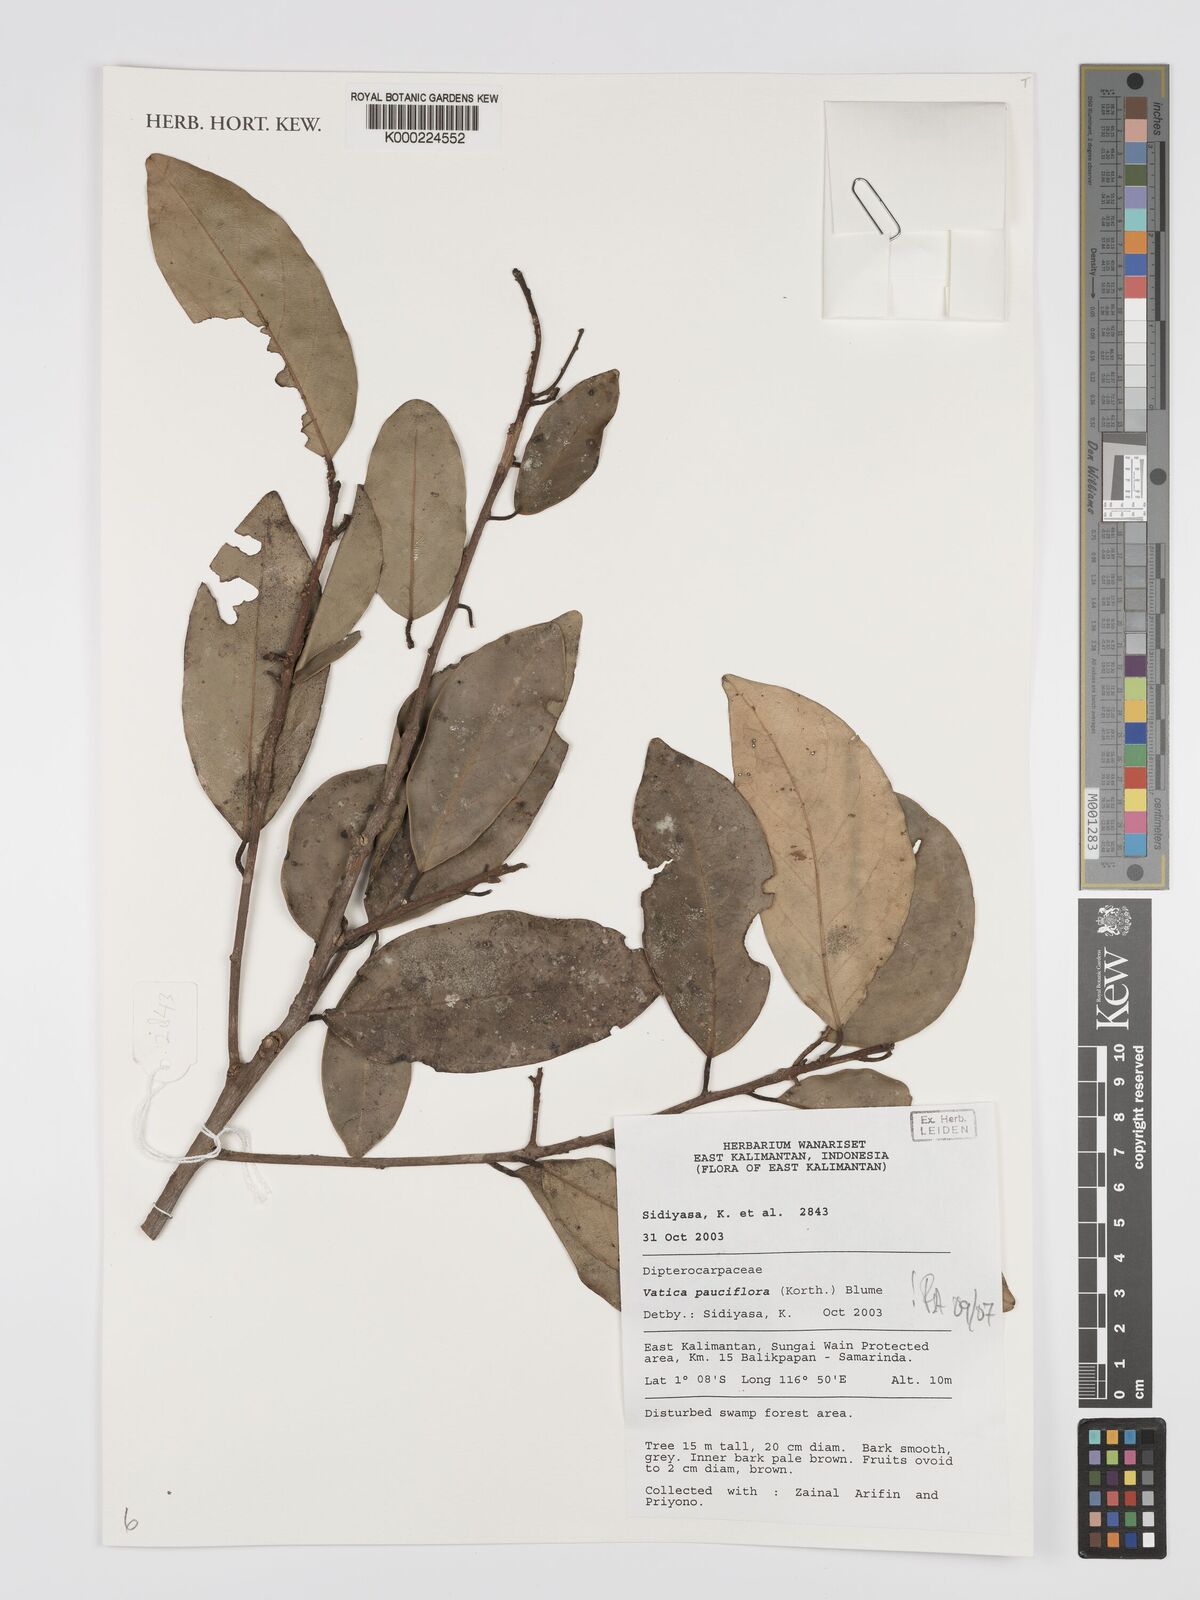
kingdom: Plantae
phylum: Tracheophyta
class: Magnoliopsida
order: Malvales
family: Dipterocarpaceae
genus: Vatica
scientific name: Vatica pauciflora
